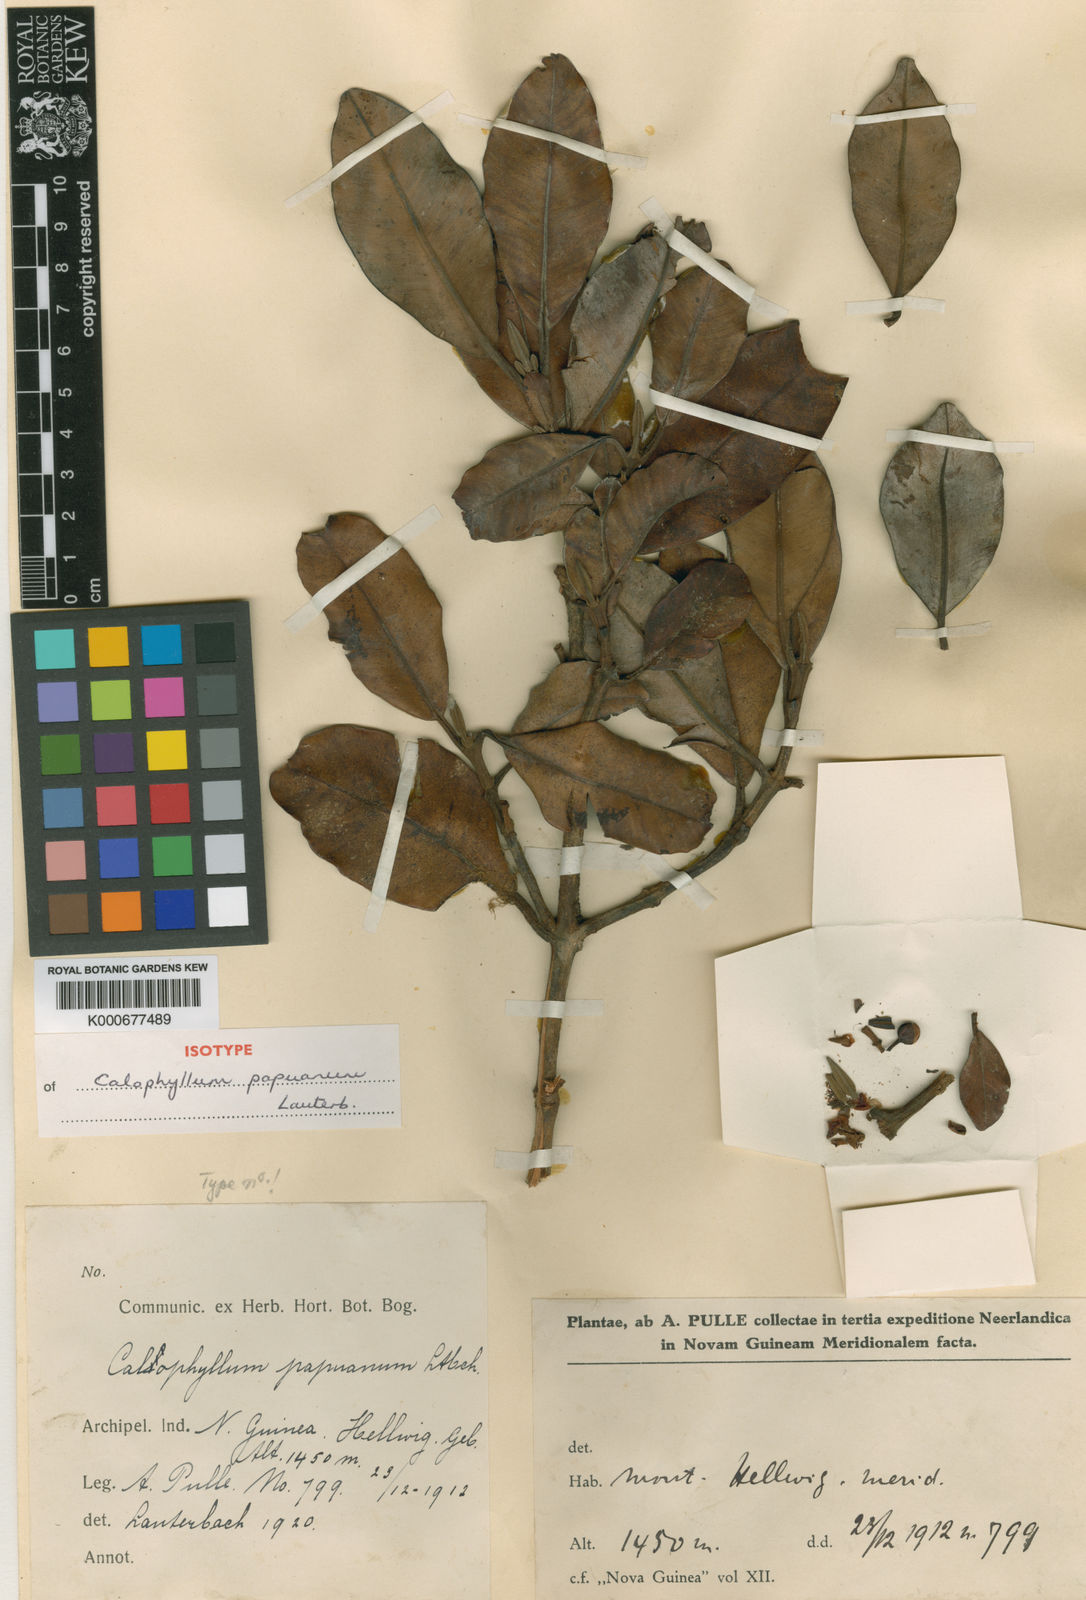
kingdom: Plantae
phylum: Tracheophyta
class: Magnoliopsida
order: Malpighiales
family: Calophyllaceae
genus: Calophyllum
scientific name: Calophyllum papuanum
